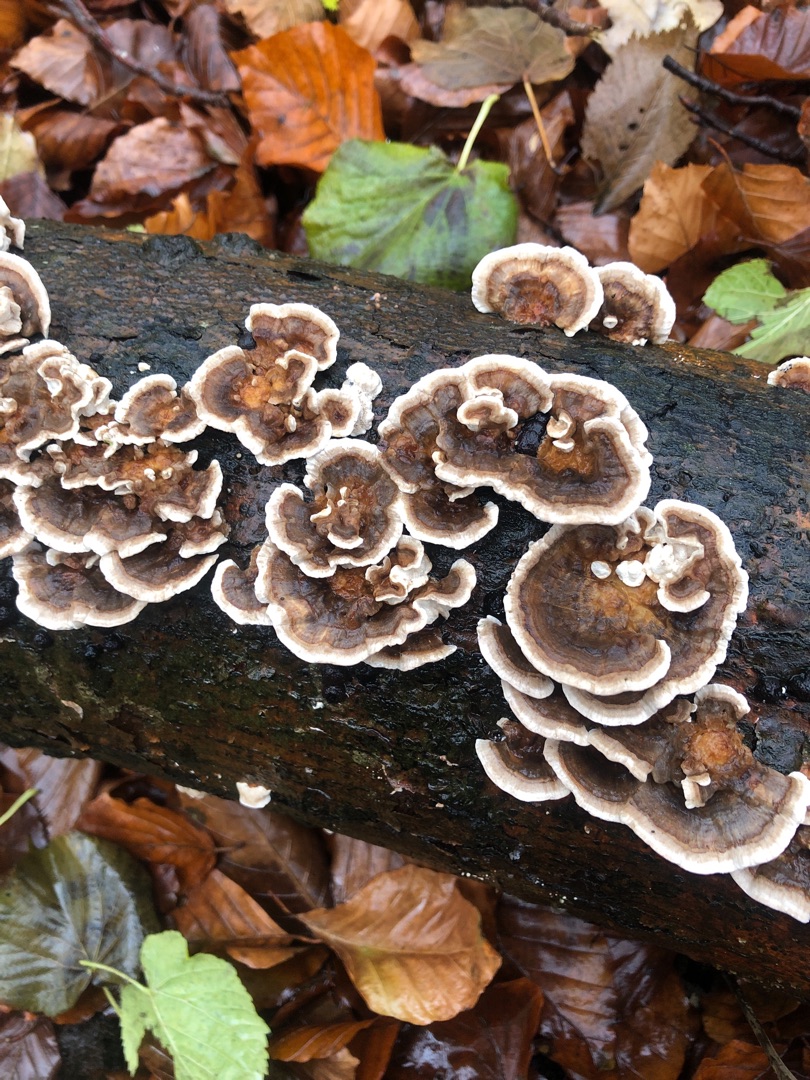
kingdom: Fungi
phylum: Basidiomycota
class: Agaricomycetes
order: Polyporales
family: Polyporaceae
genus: Trametes
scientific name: Trametes versicolor
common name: Broget læderporesvamp
